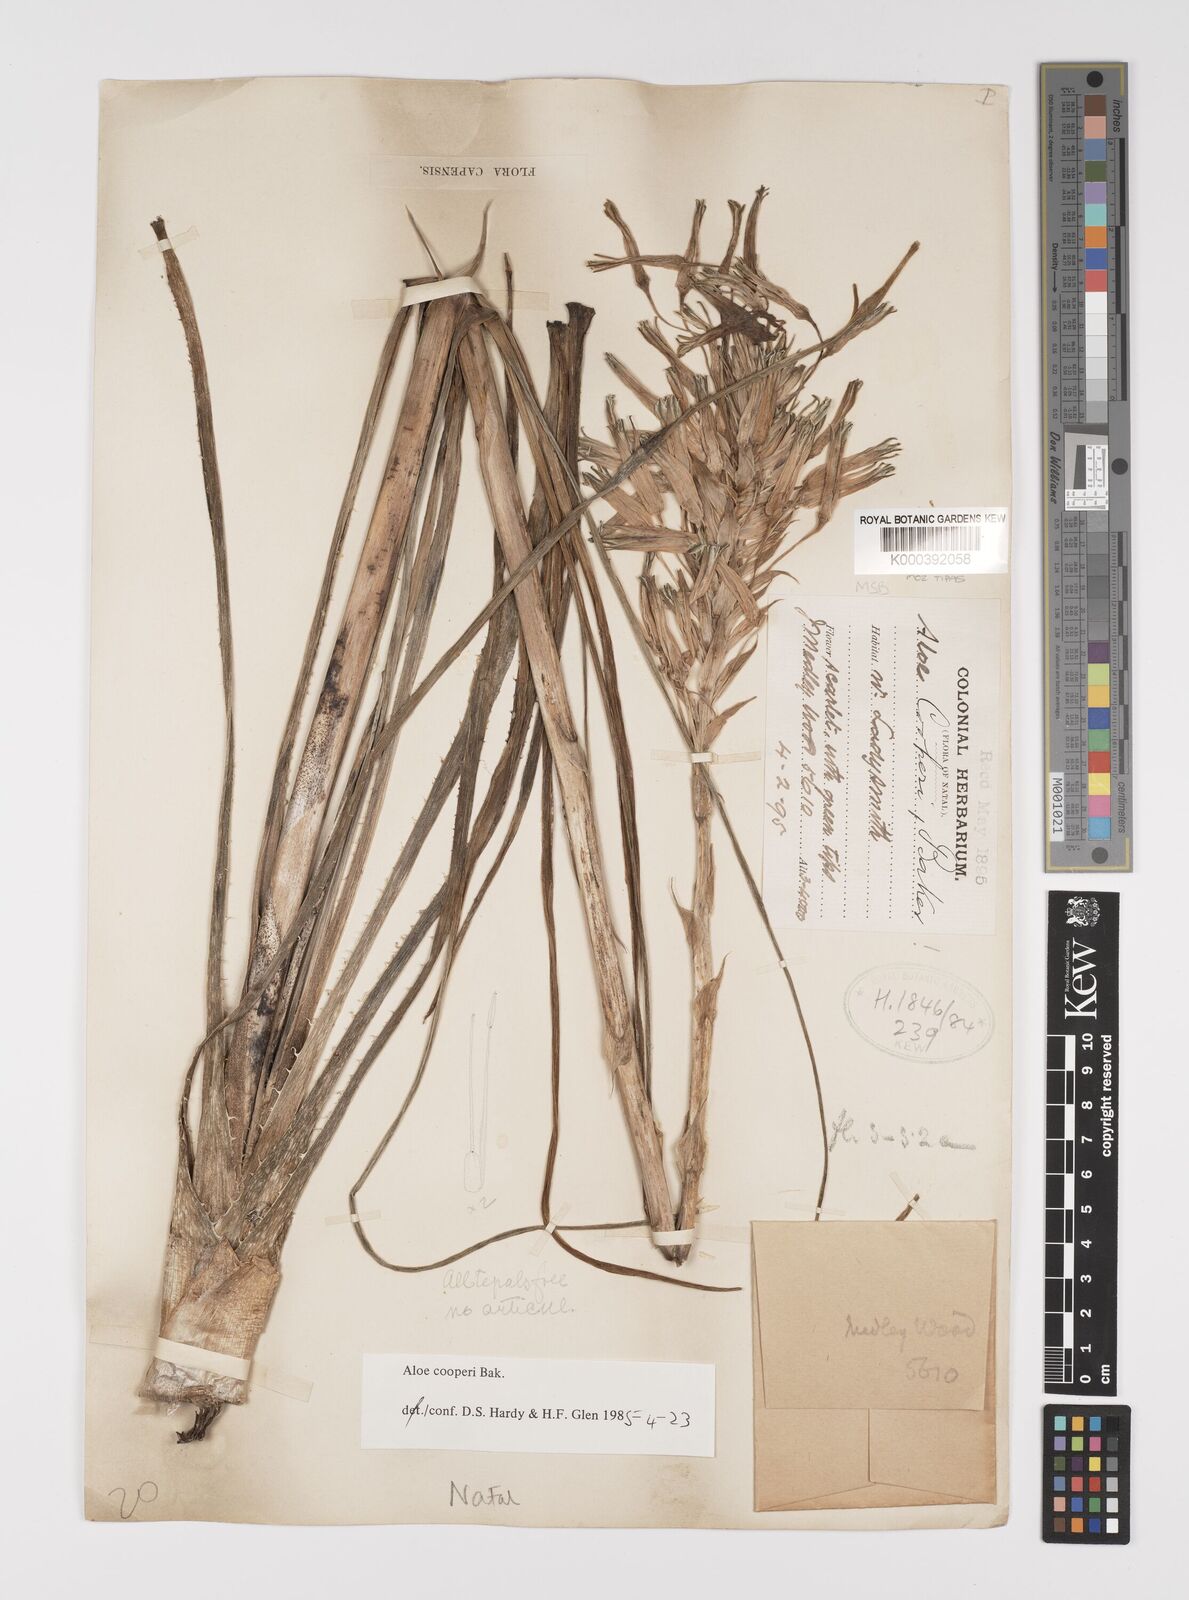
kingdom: Plantae
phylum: Tracheophyta
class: Liliopsida
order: Asparagales
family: Asphodelaceae
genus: Aloe
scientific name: Aloe cooperi
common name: Cooper's aloe
